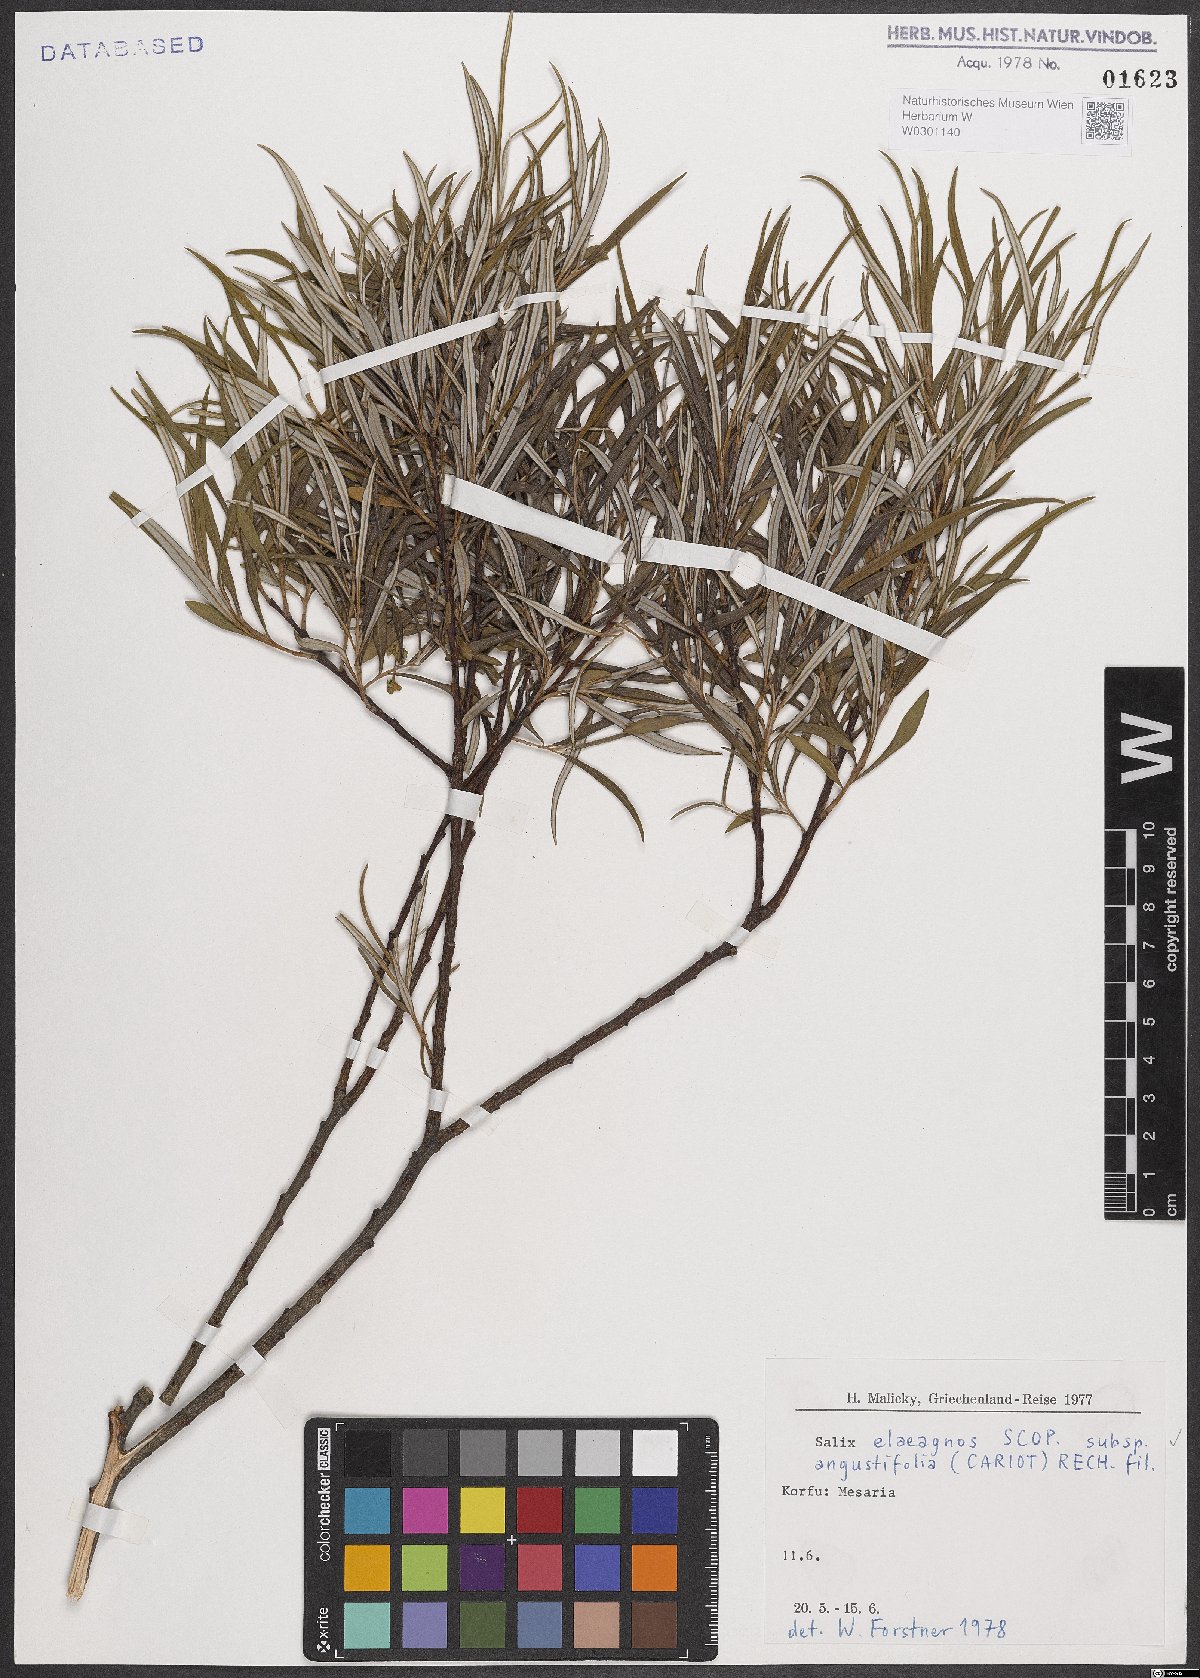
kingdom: Plantae
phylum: Tracheophyta
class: Magnoliopsida
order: Malpighiales
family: Salicaceae
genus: Salix
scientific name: Salix eleagnos
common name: Elaeagnus willow
